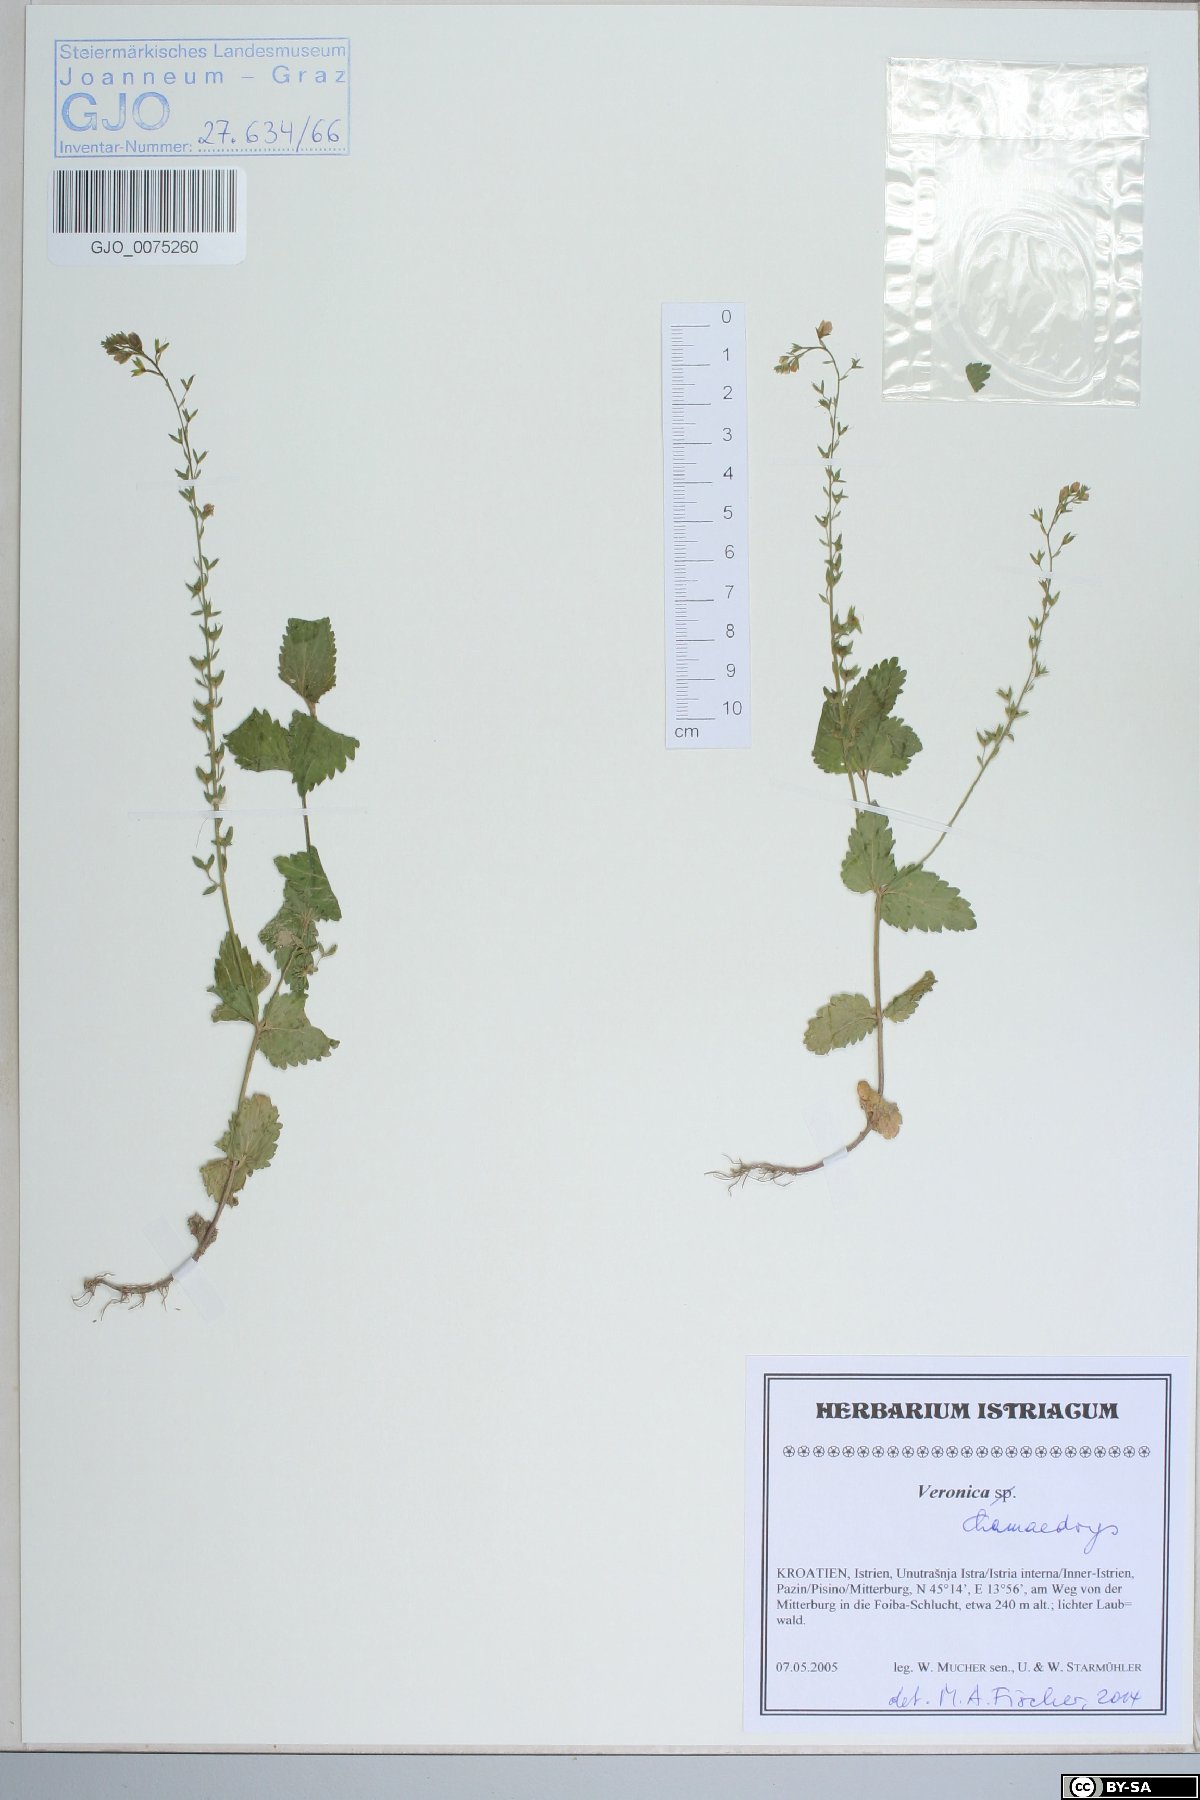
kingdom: Plantae
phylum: Tracheophyta
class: Magnoliopsida
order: Lamiales
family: Plantaginaceae
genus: Veronica
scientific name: Veronica chamaedrys
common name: Germander speedwell
